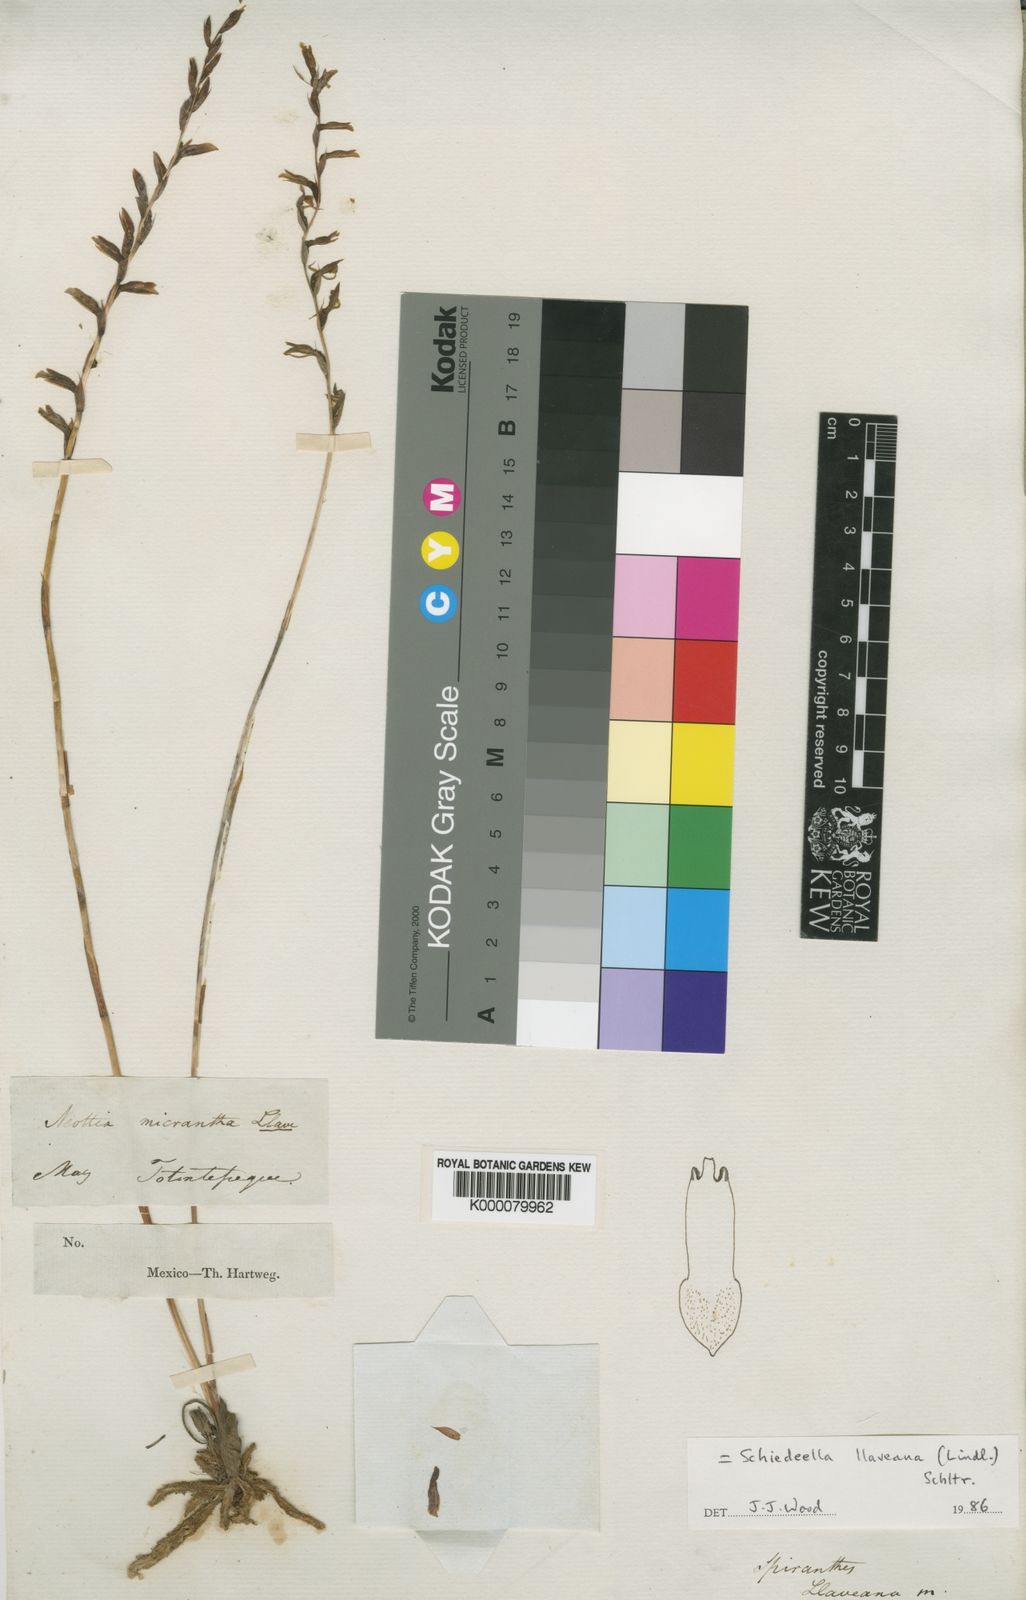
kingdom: Plantae
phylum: Tracheophyta
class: Liliopsida
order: Asparagales
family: Orchidaceae
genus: Greenwoodiella
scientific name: Greenwoodiella micrantha
